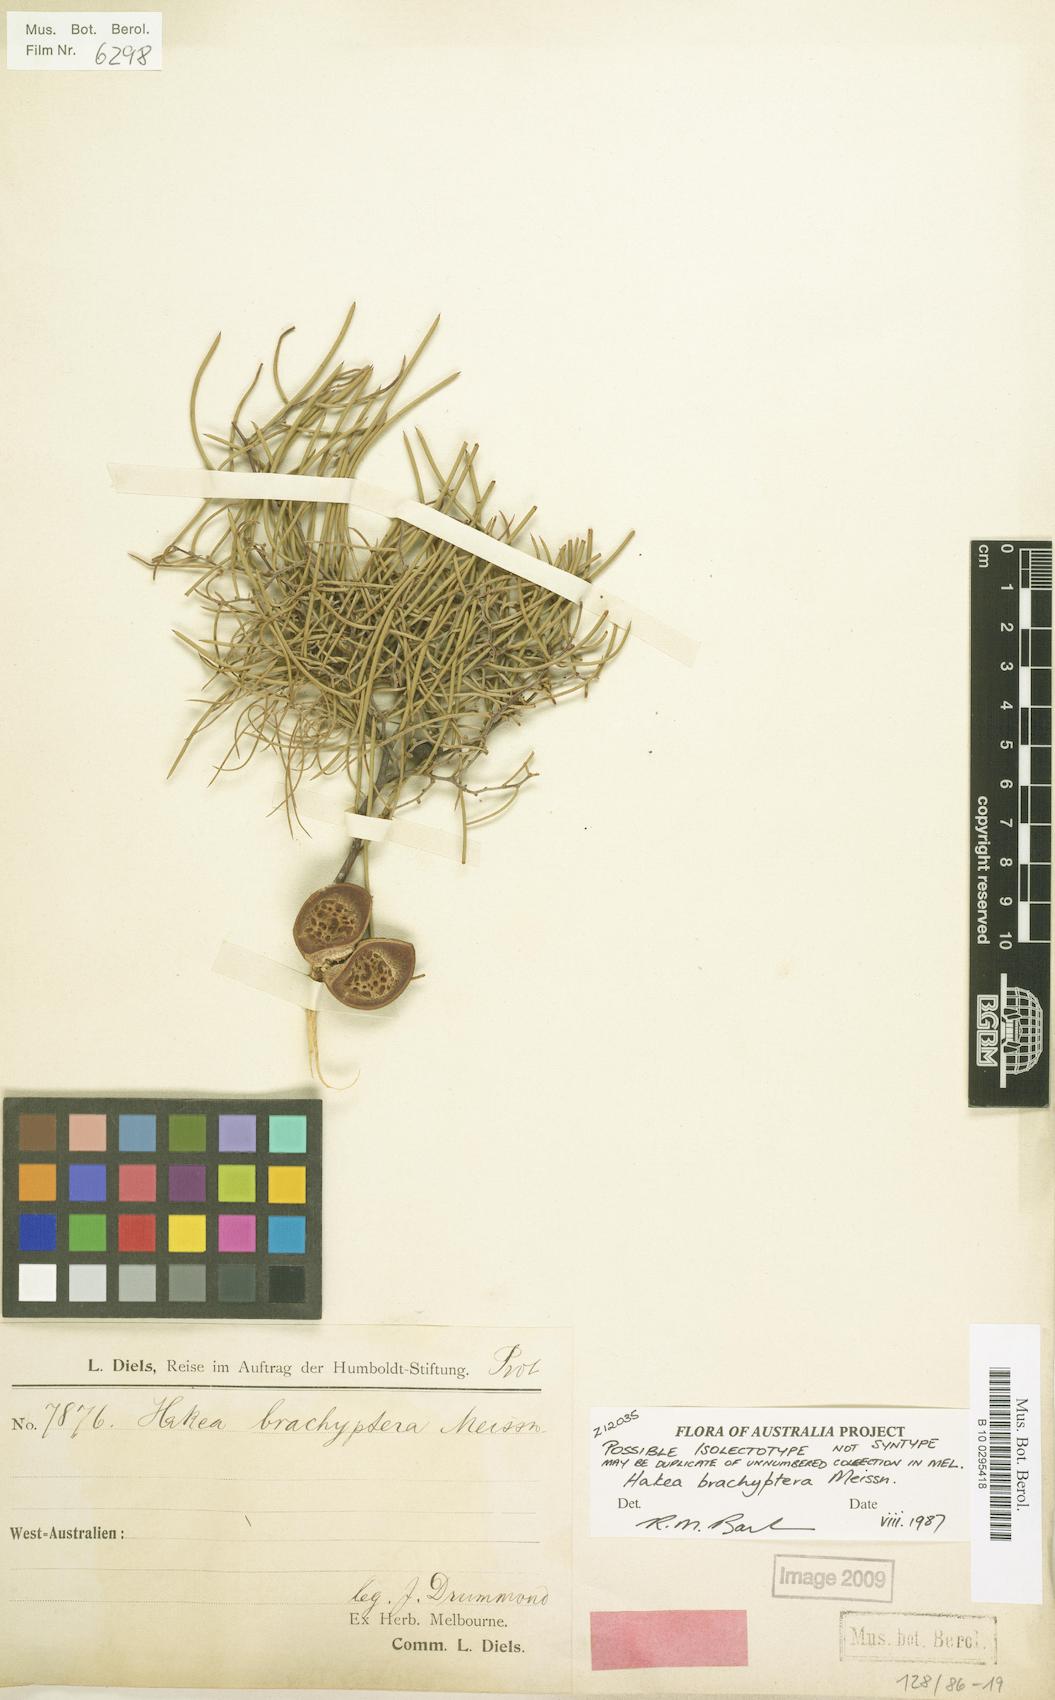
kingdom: Plantae
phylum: Tracheophyta
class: Magnoliopsida
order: Proteales
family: Proteaceae
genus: Hakea
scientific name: Hakea brachyptera
